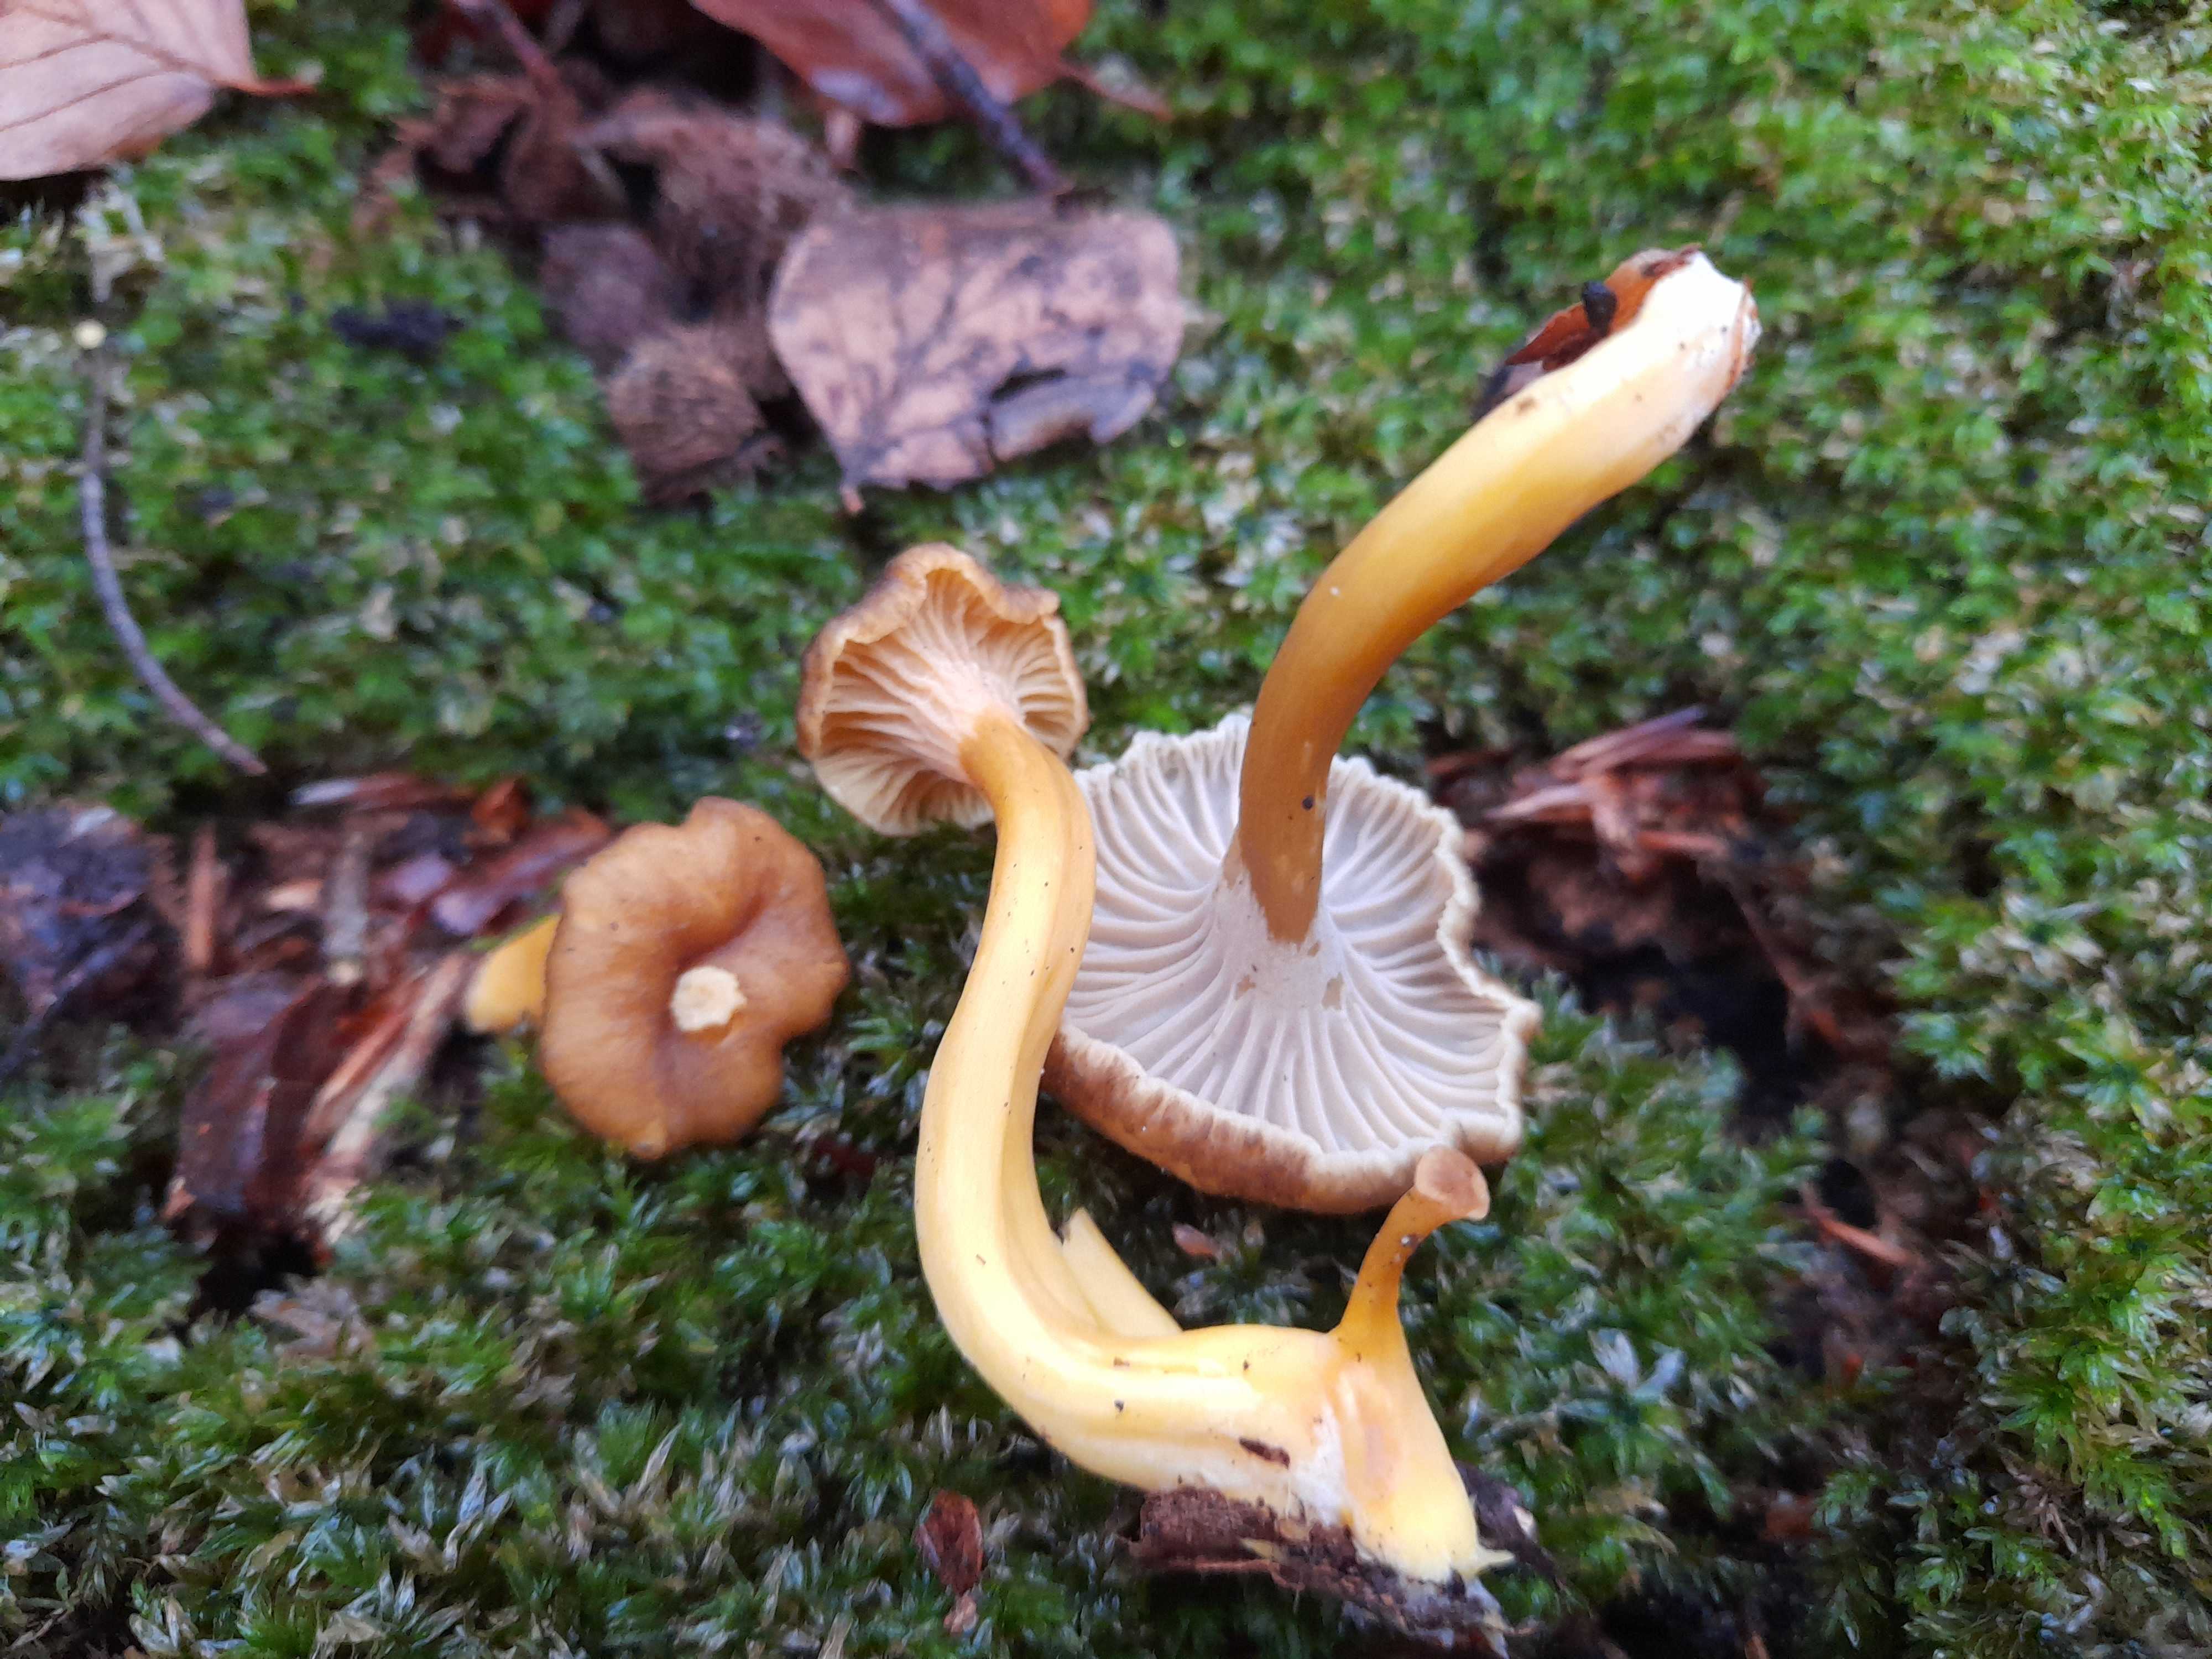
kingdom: Fungi
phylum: Basidiomycota
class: Agaricomycetes
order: Cantharellales
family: Hydnaceae
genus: Craterellus
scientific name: Craterellus tubaeformis
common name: tragt-kantarel
